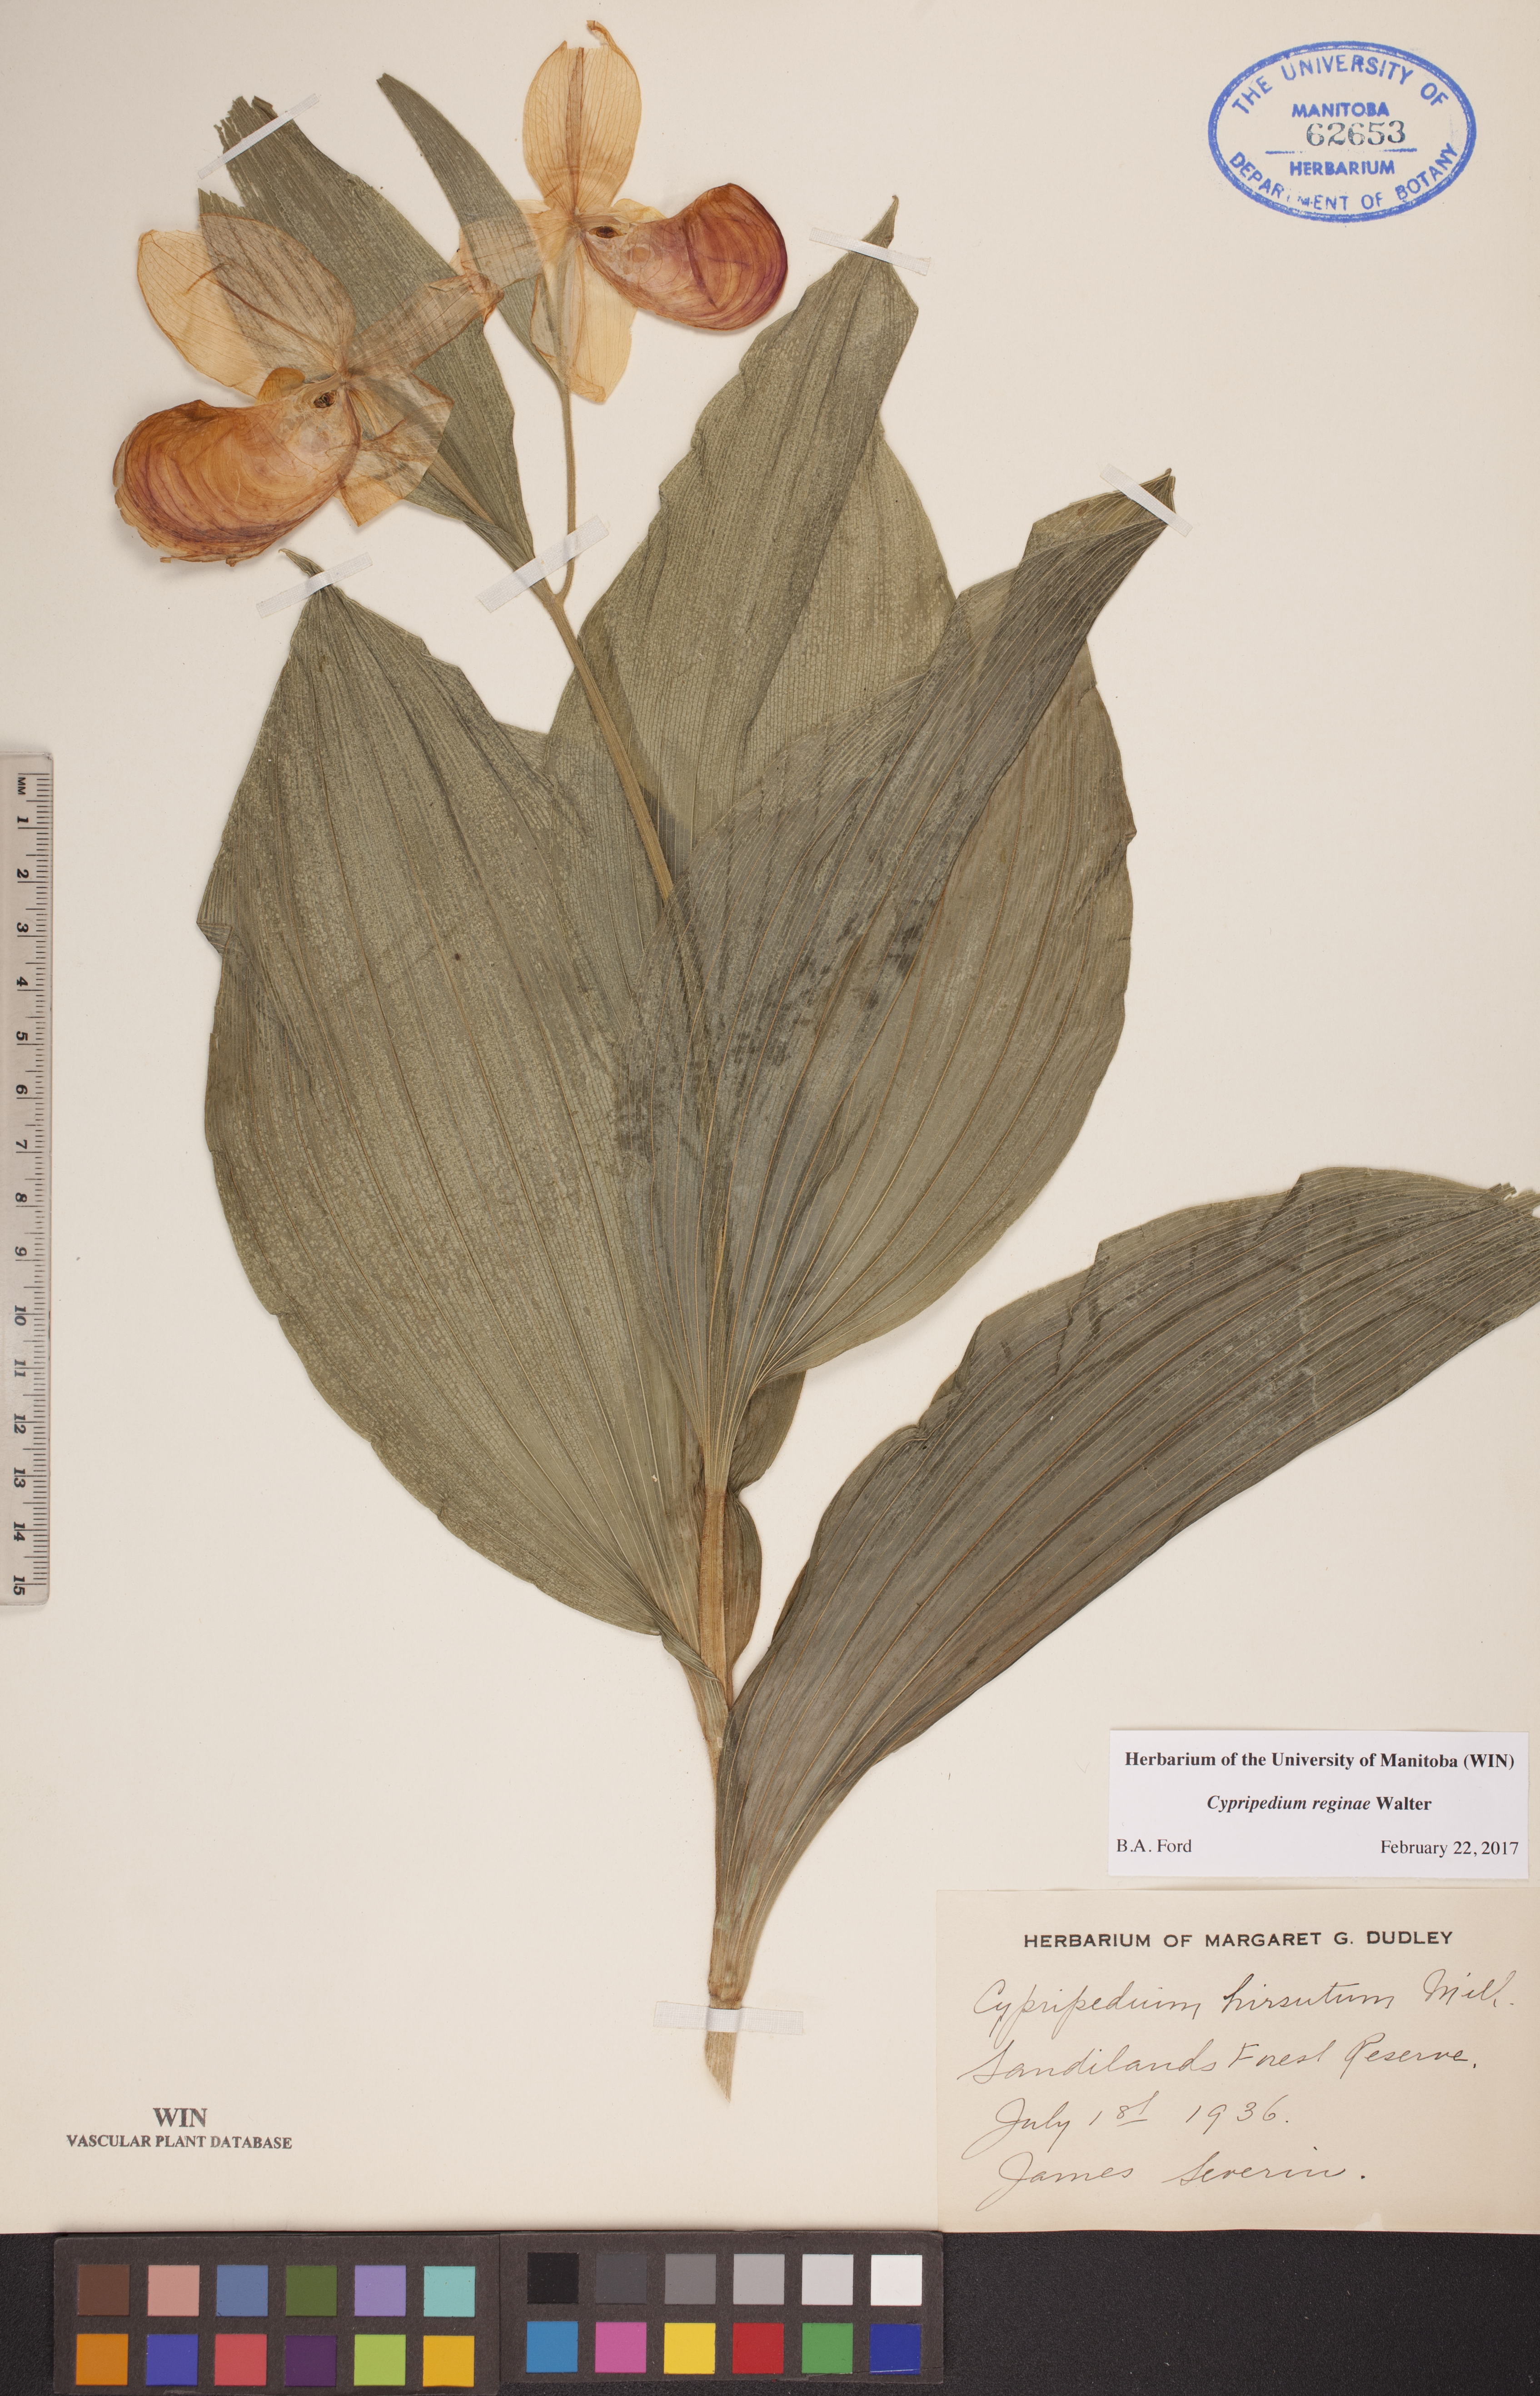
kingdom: Plantae
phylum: Tracheophyta
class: Liliopsida
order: Asparagales
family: Orchidaceae
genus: Cypripedium
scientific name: Cypripedium reginae
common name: Queen lady's-slipper
